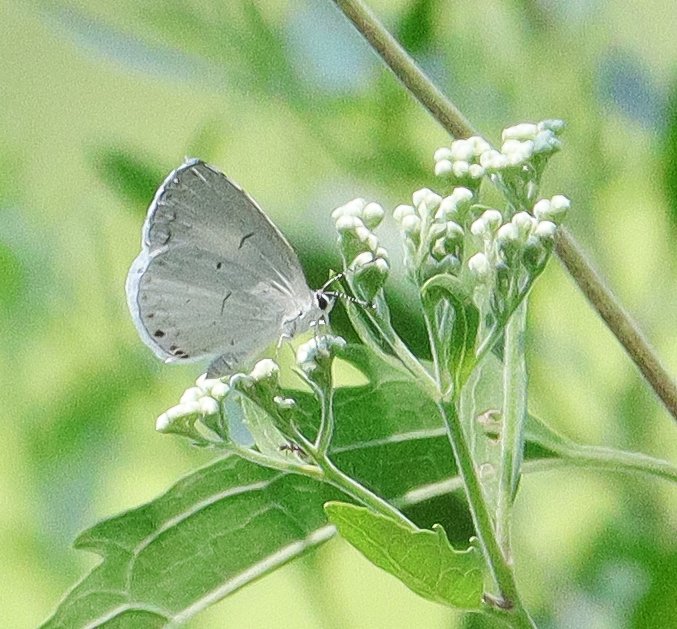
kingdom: Animalia
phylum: Arthropoda
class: Insecta
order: Lepidoptera
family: Lycaenidae
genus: Cyaniris
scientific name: Cyaniris neglecta
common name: Summer Azure
